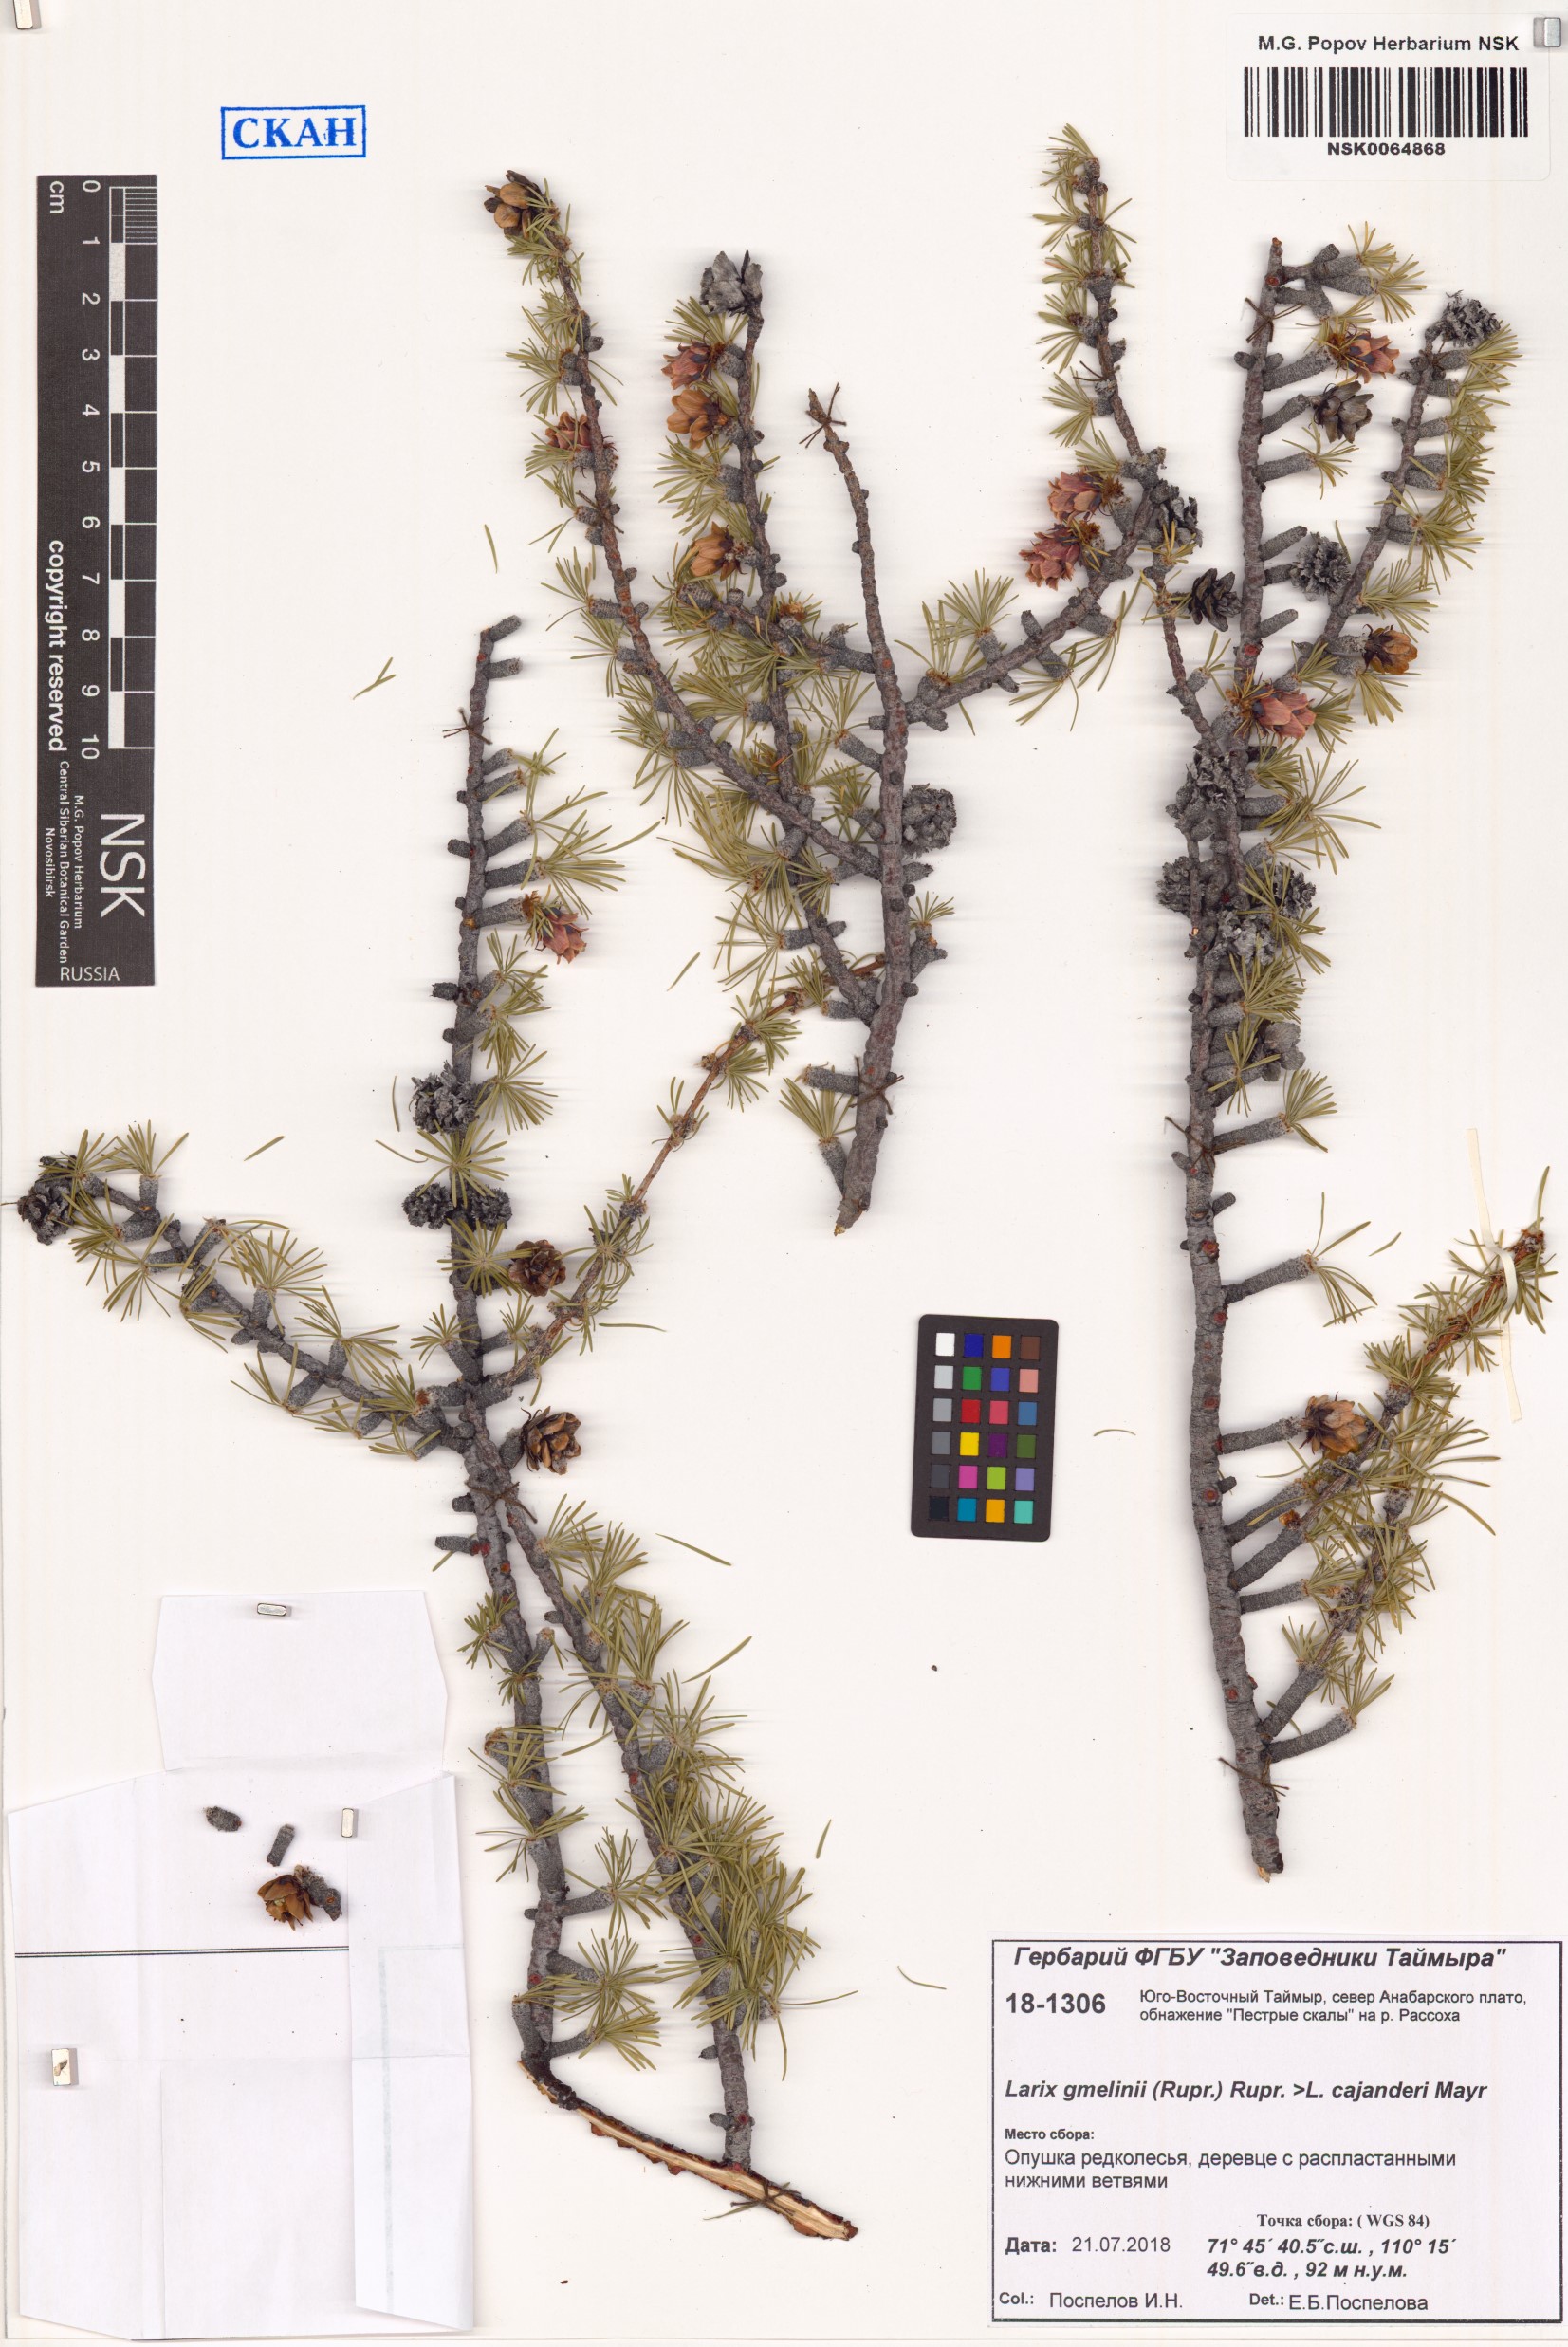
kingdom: Plantae
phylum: Tracheophyta
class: Pinopsida
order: Pinales
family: Pinaceae
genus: Larix
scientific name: Larix gmelinii
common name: Dahurian larch
